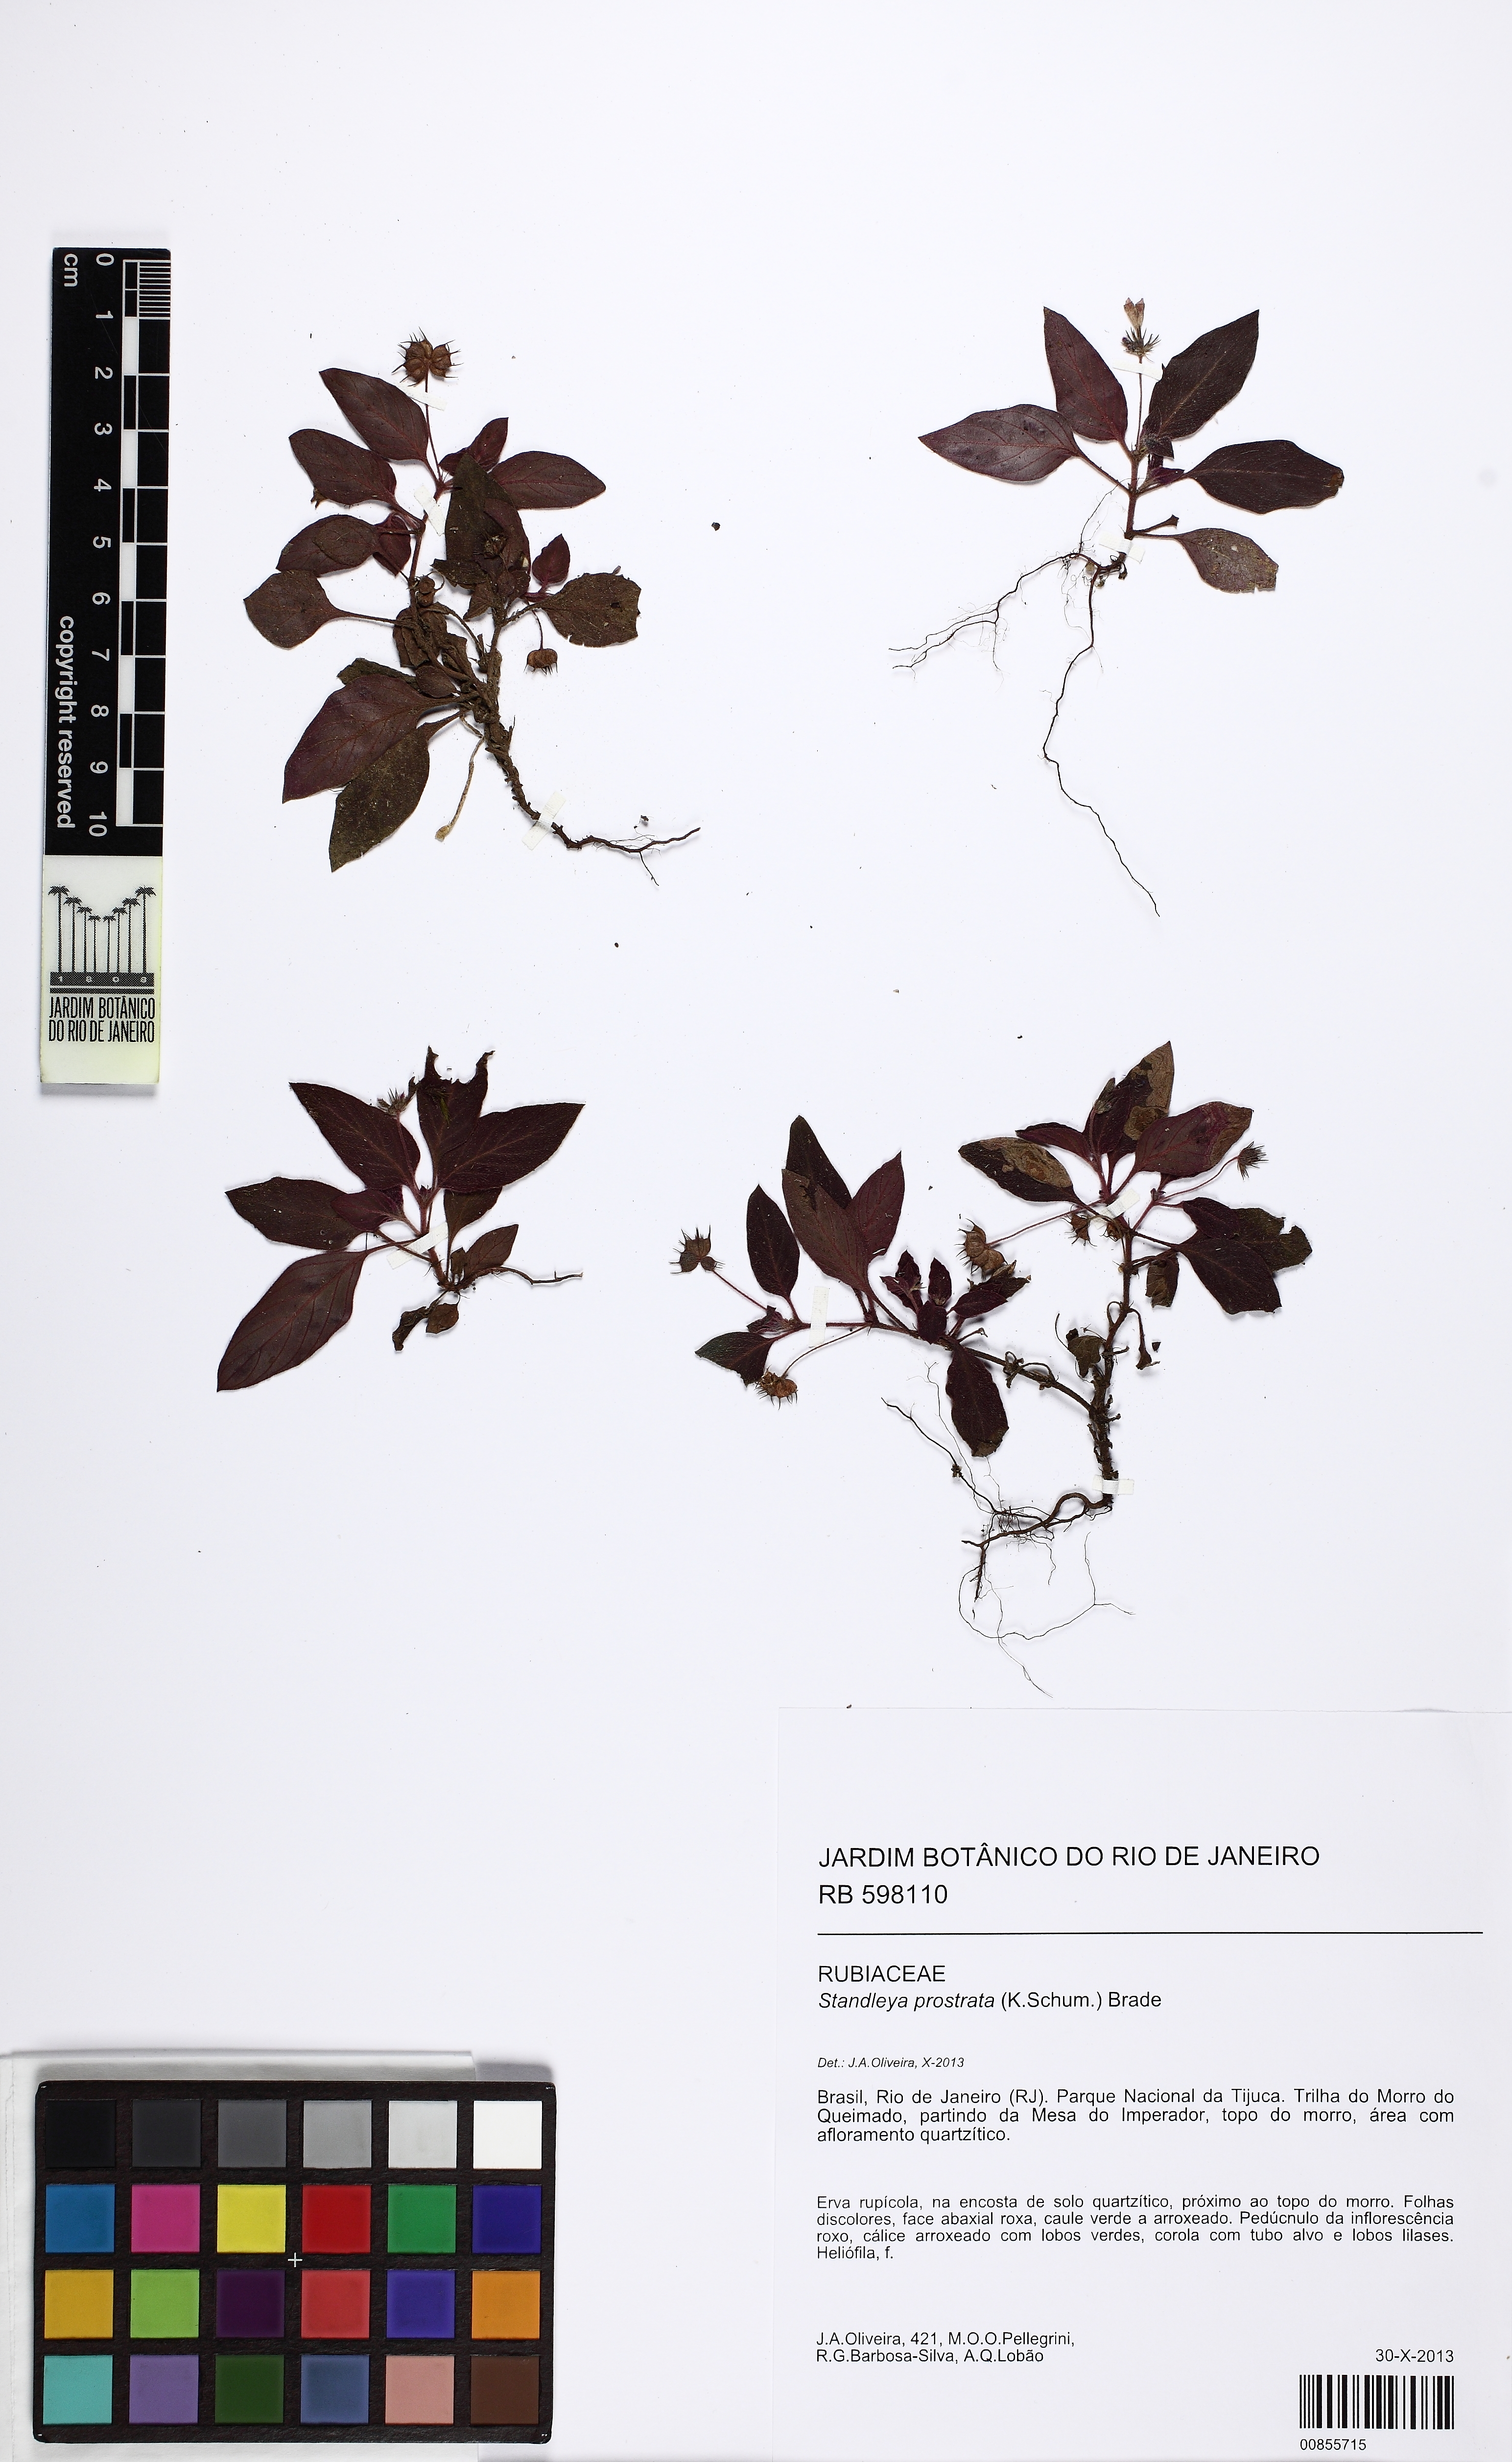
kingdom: Plantae
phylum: Tracheophyta
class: Magnoliopsida
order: Gentianales
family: Rubiaceae
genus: Standleya
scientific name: Standleya prostrata
